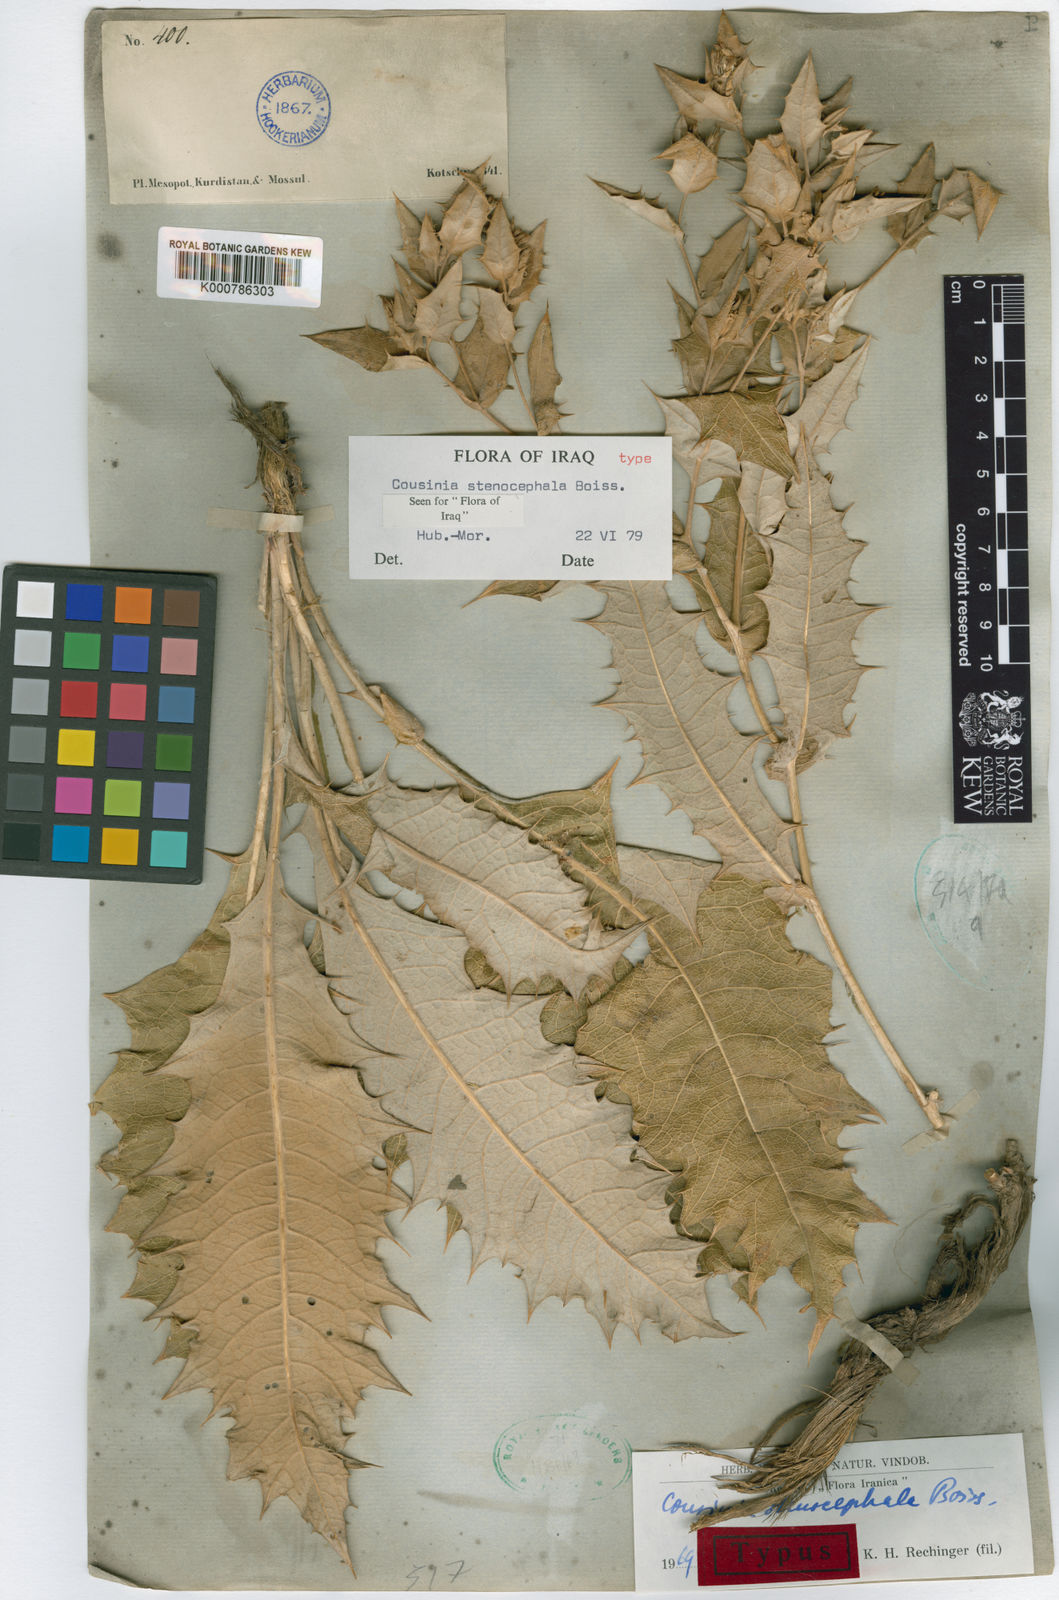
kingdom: Plantae
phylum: Tracheophyta
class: Magnoliopsida
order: Asterales
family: Asteraceae
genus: Cousinia
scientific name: Cousinia stenocephala
